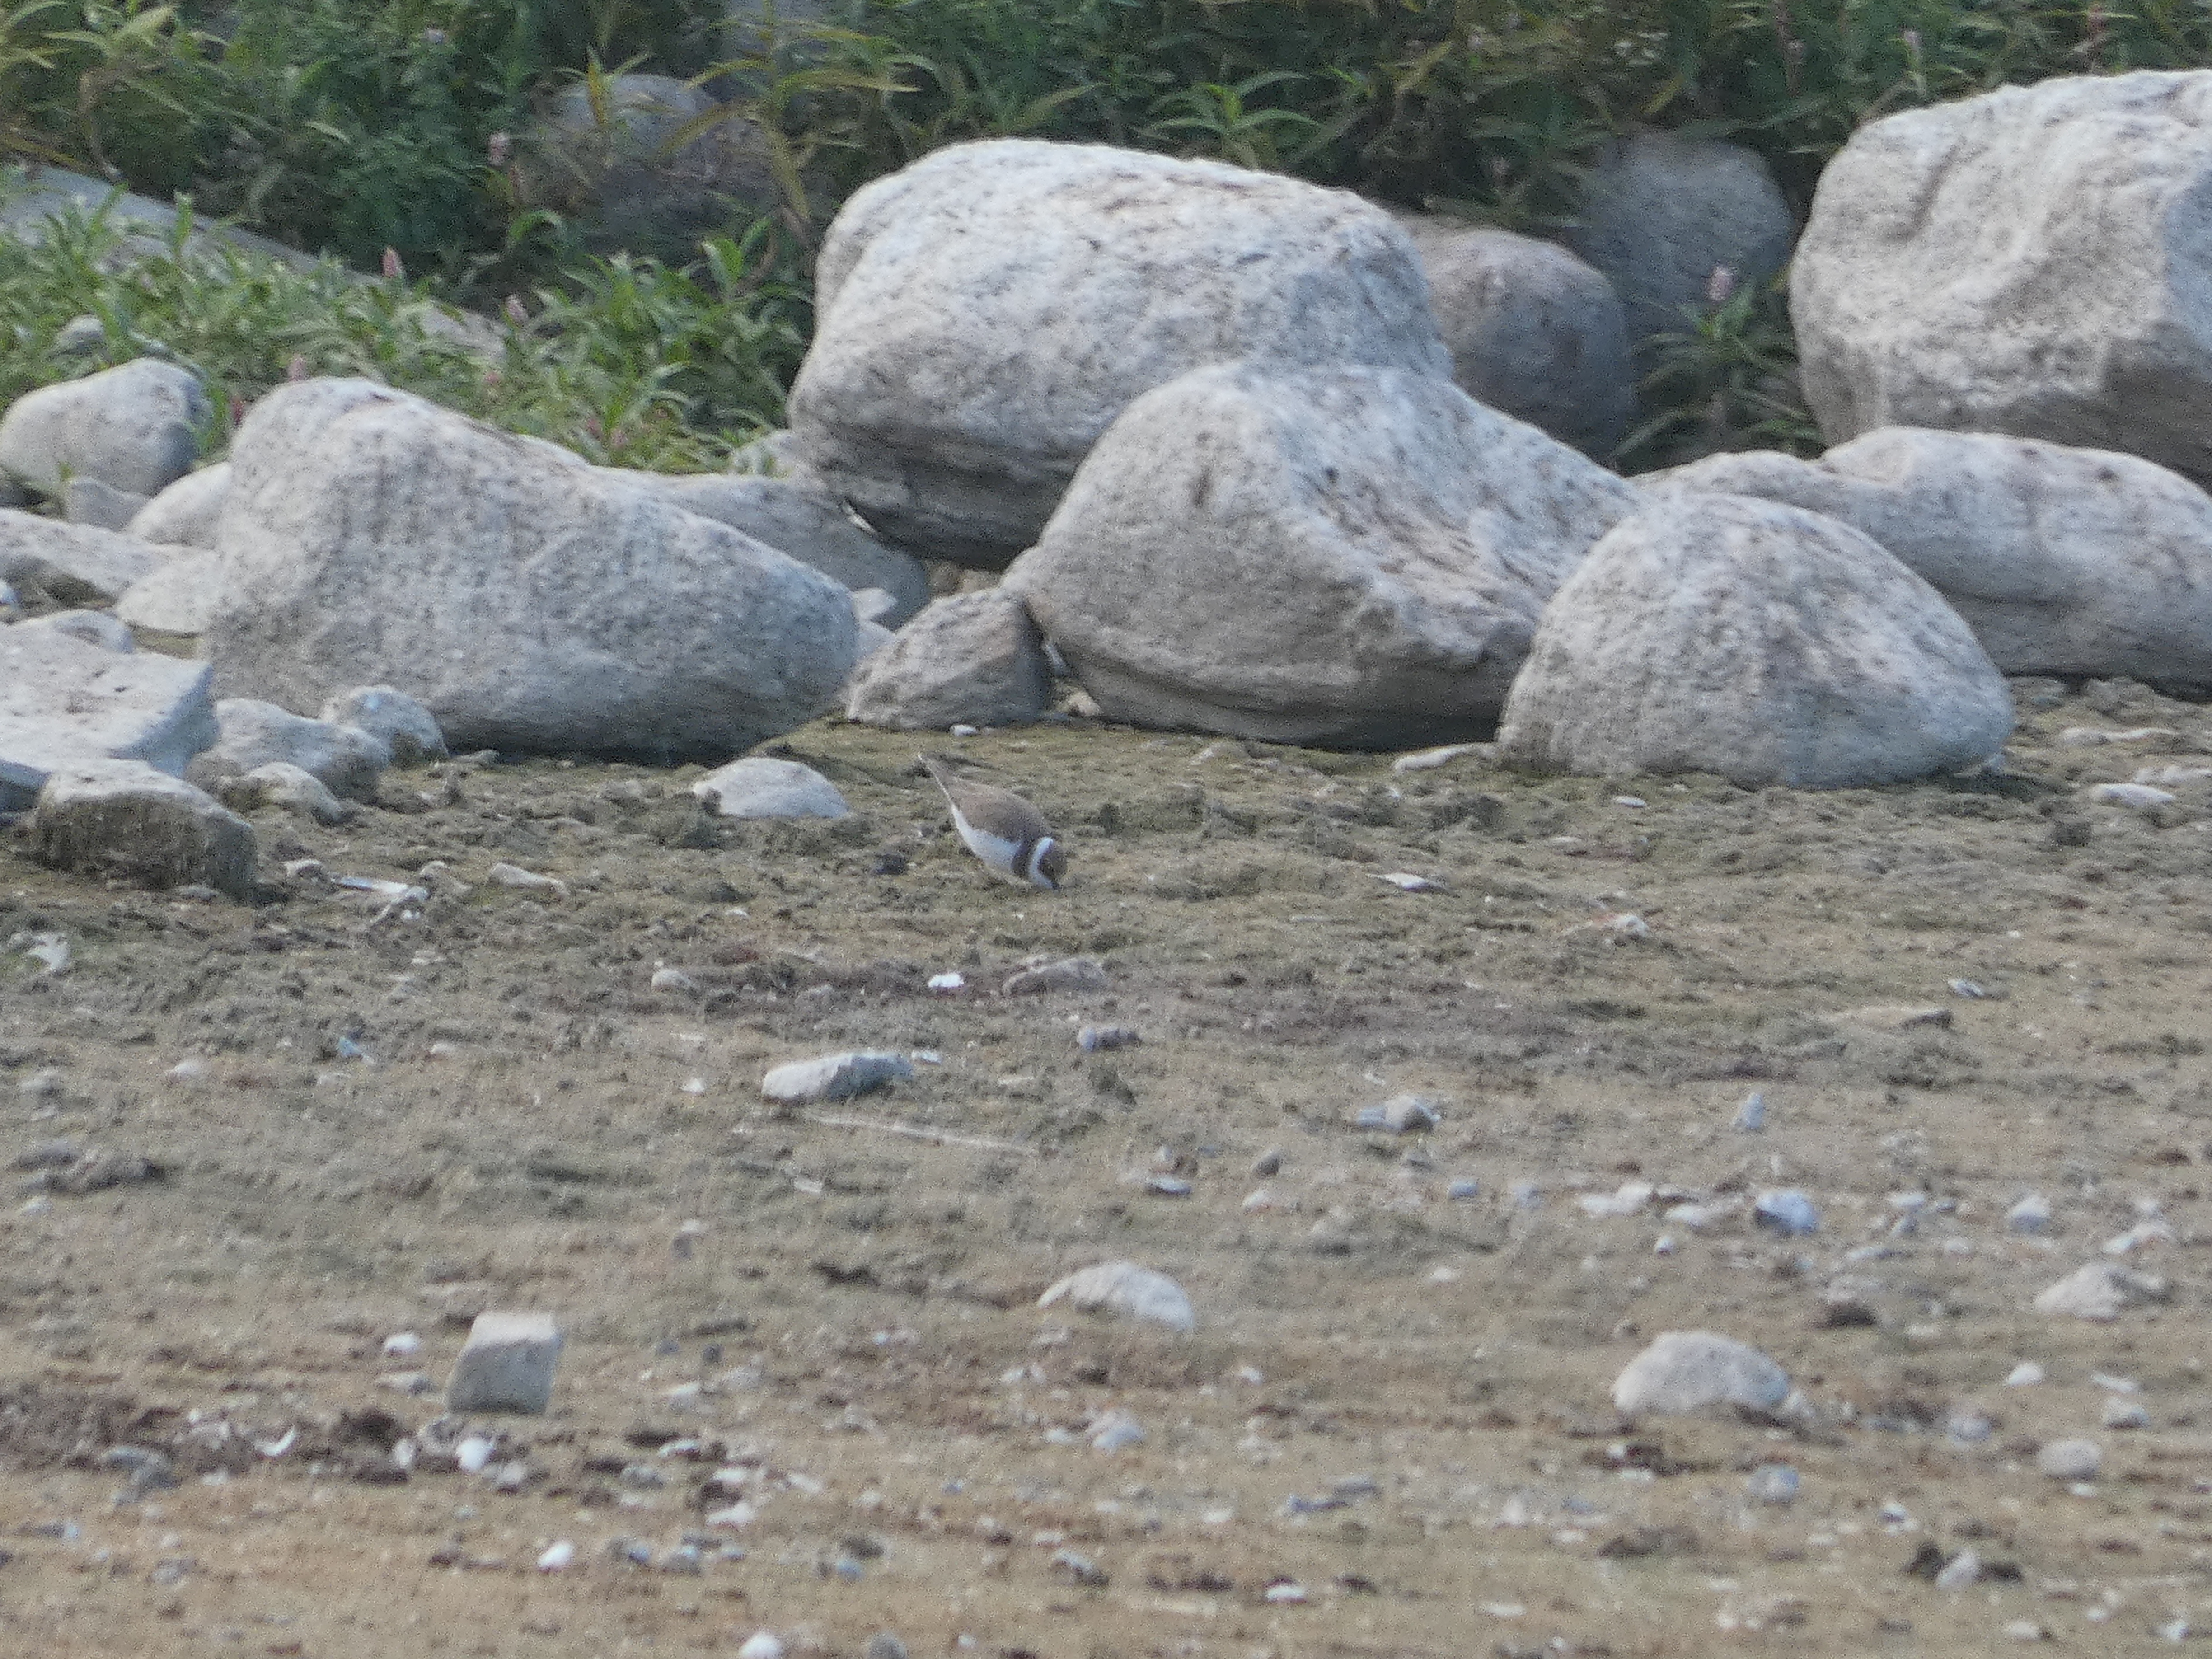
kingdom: Animalia
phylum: Chordata
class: Aves
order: Charadriiformes
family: Charadriidae
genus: Charadrius
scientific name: Charadrius hiaticula
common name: Stor præstekrave
